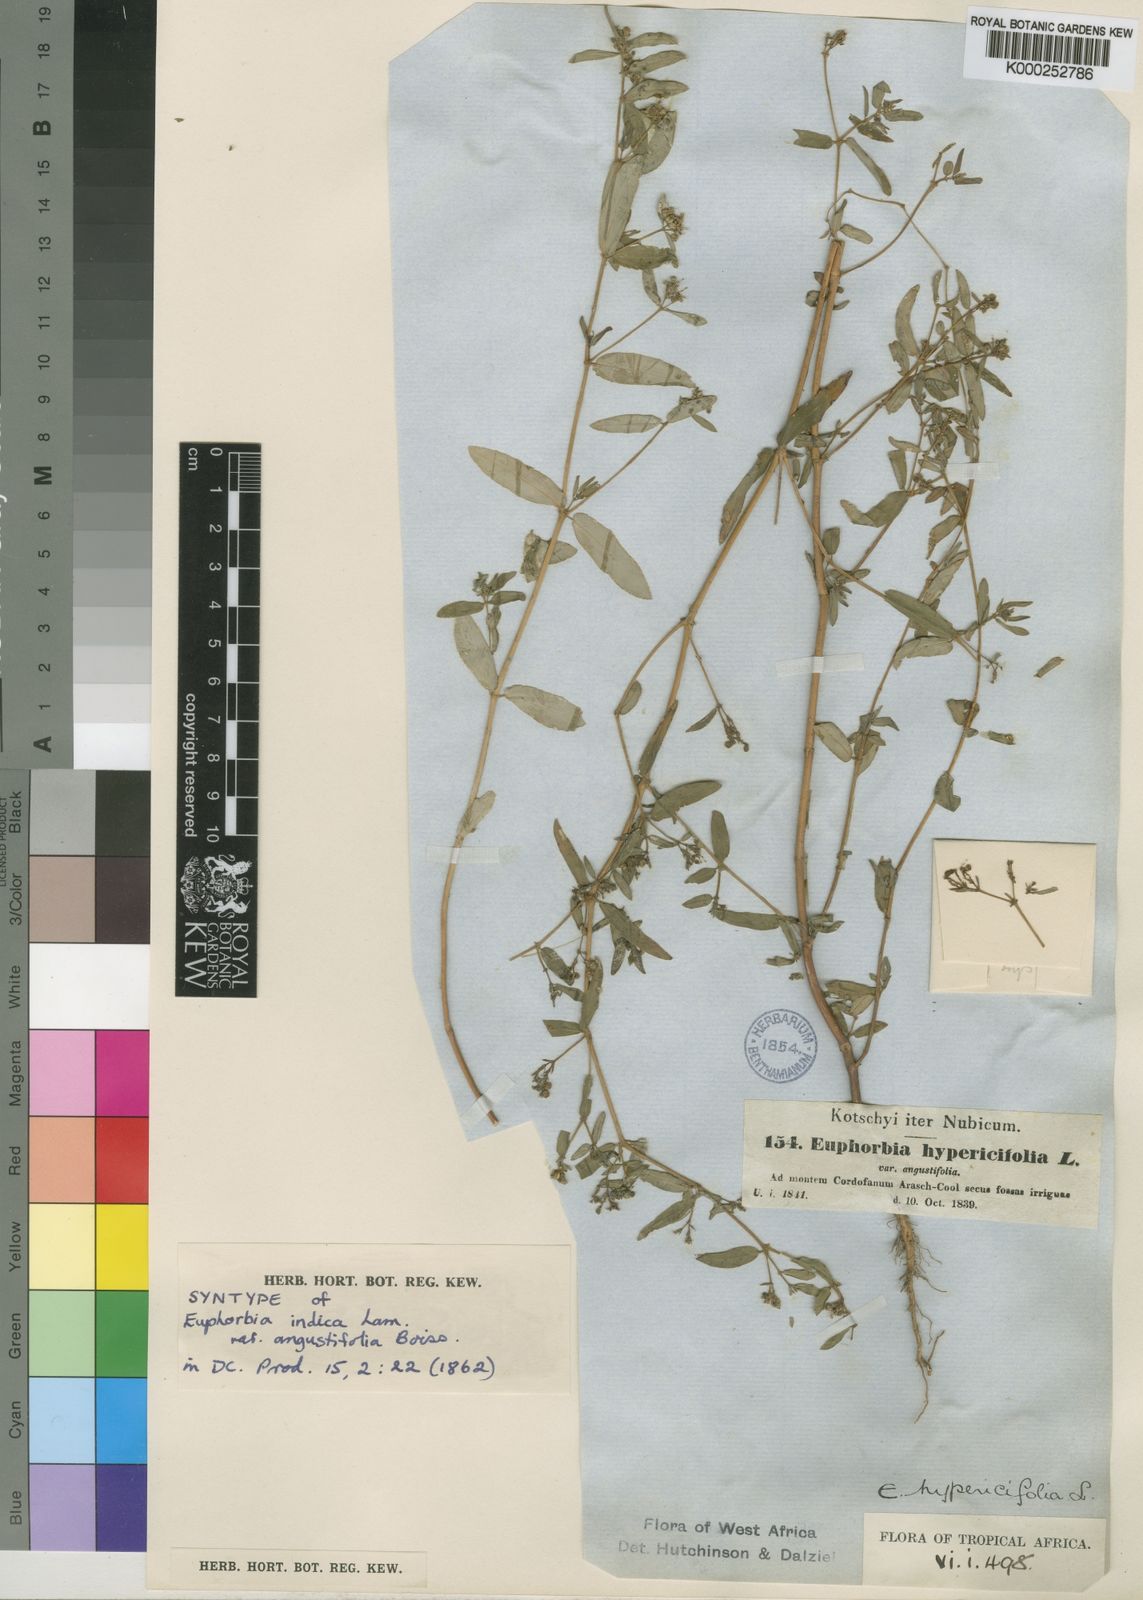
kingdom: Plantae
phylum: Tracheophyta
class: Magnoliopsida
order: Malpighiales
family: Euphorbiaceae
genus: Euphorbia
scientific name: Euphorbia indica
